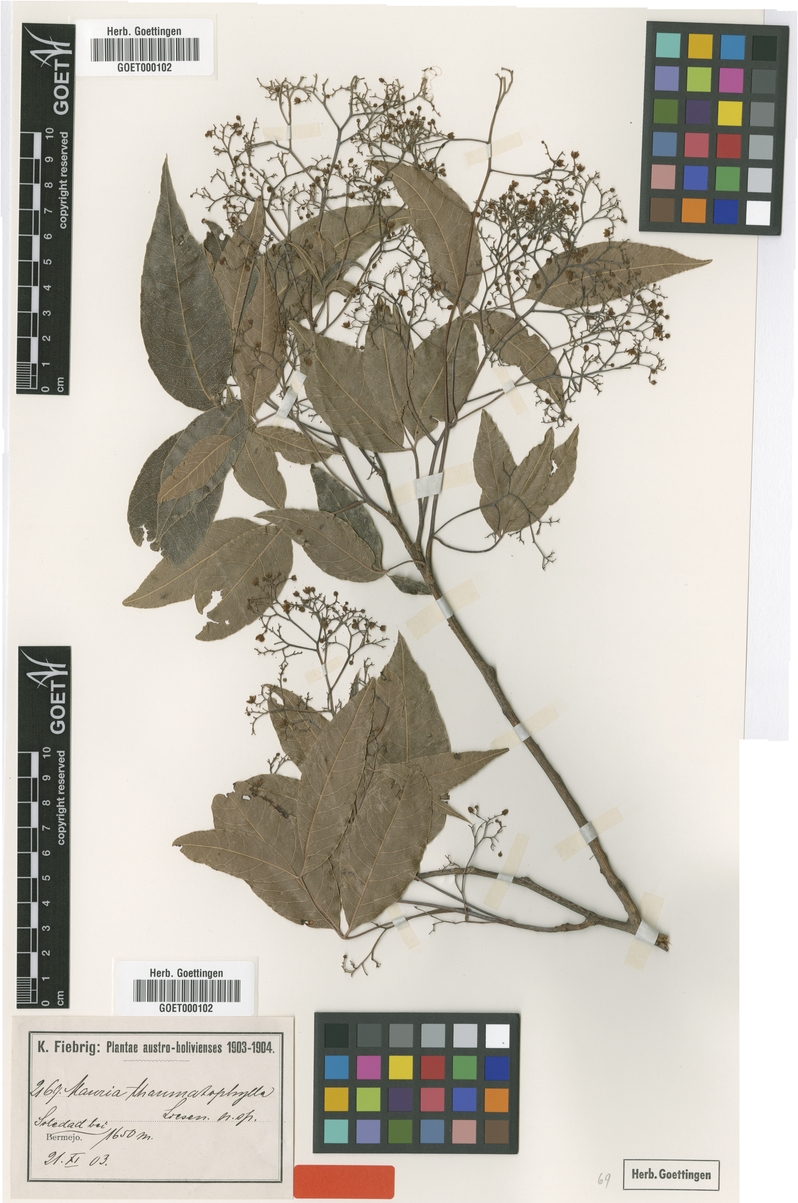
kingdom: Plantae
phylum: Tracheophyta
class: Magnoliopsida
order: Sapindales
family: Anacardiaceae
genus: Mauria
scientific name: Mauria thaumatophylla
